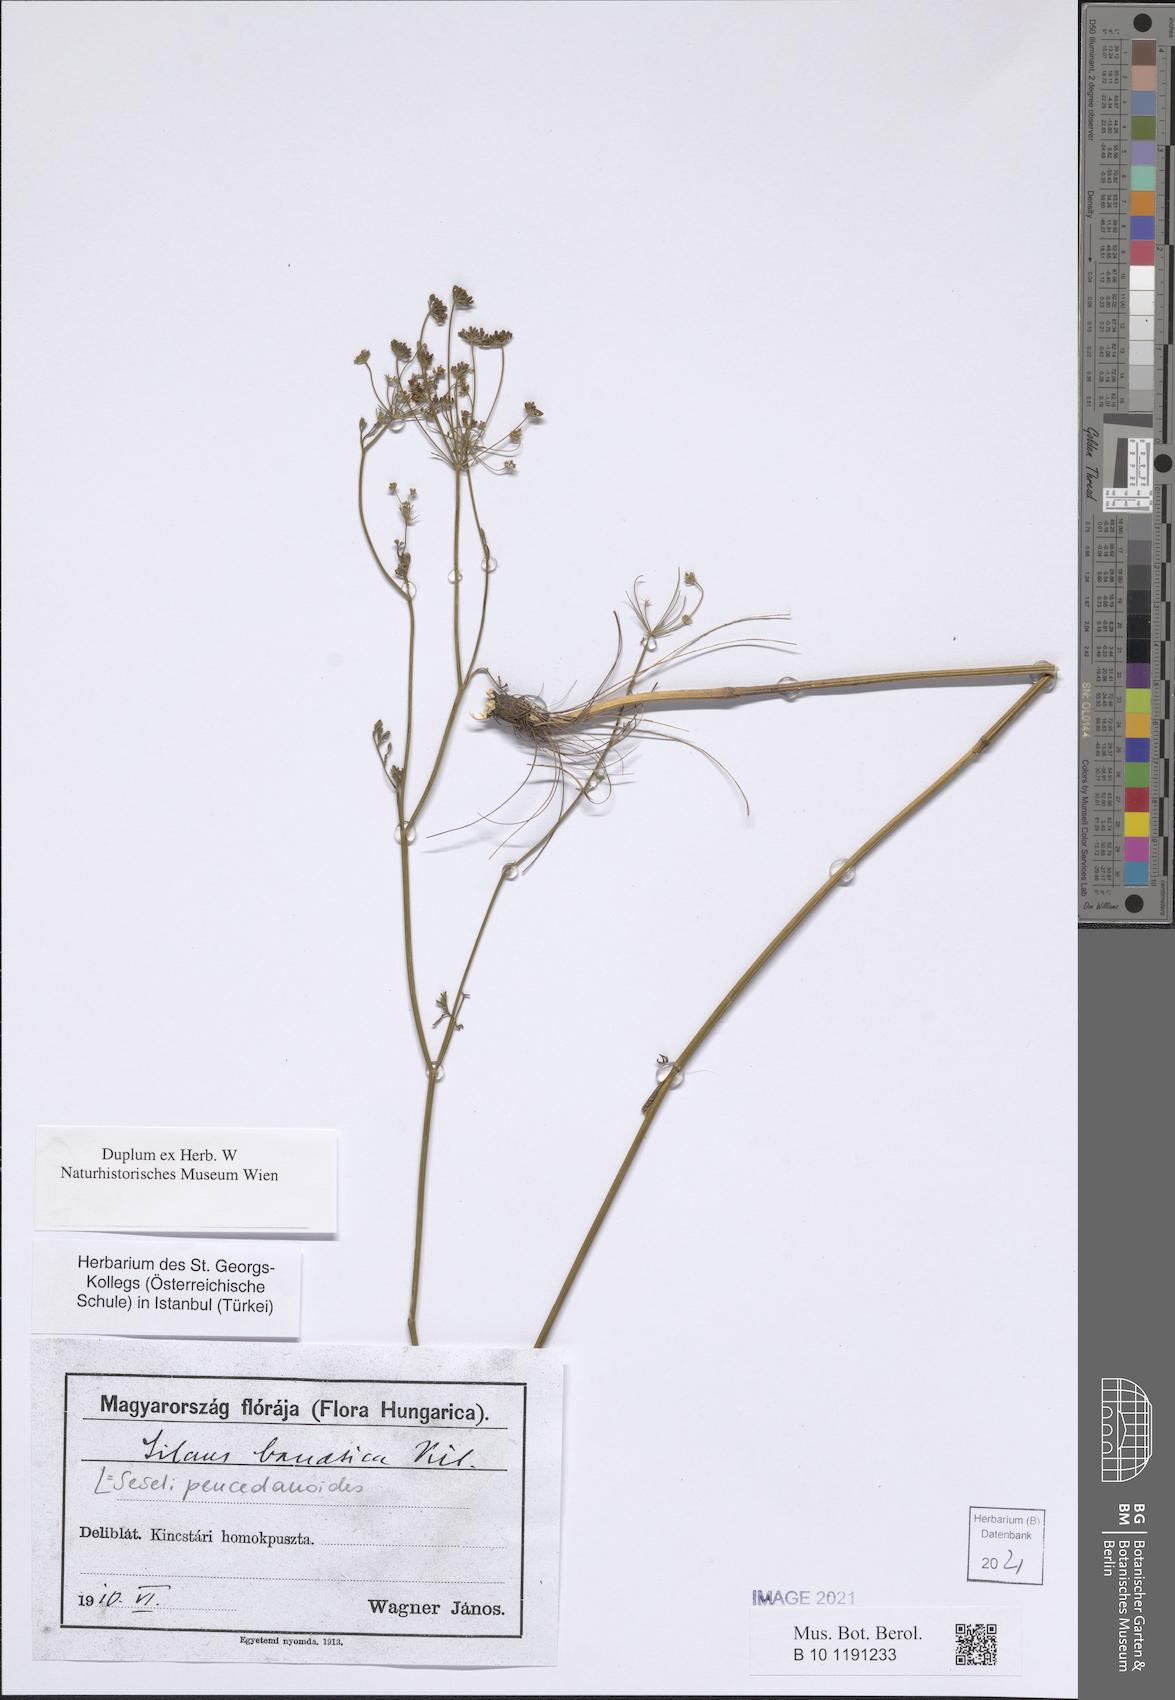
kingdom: Plantae
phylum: Tracheophyta
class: Magnoliopsida
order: Apiales
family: Apiaceae
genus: Gasparinia
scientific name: Gasparinia peucedanoides
